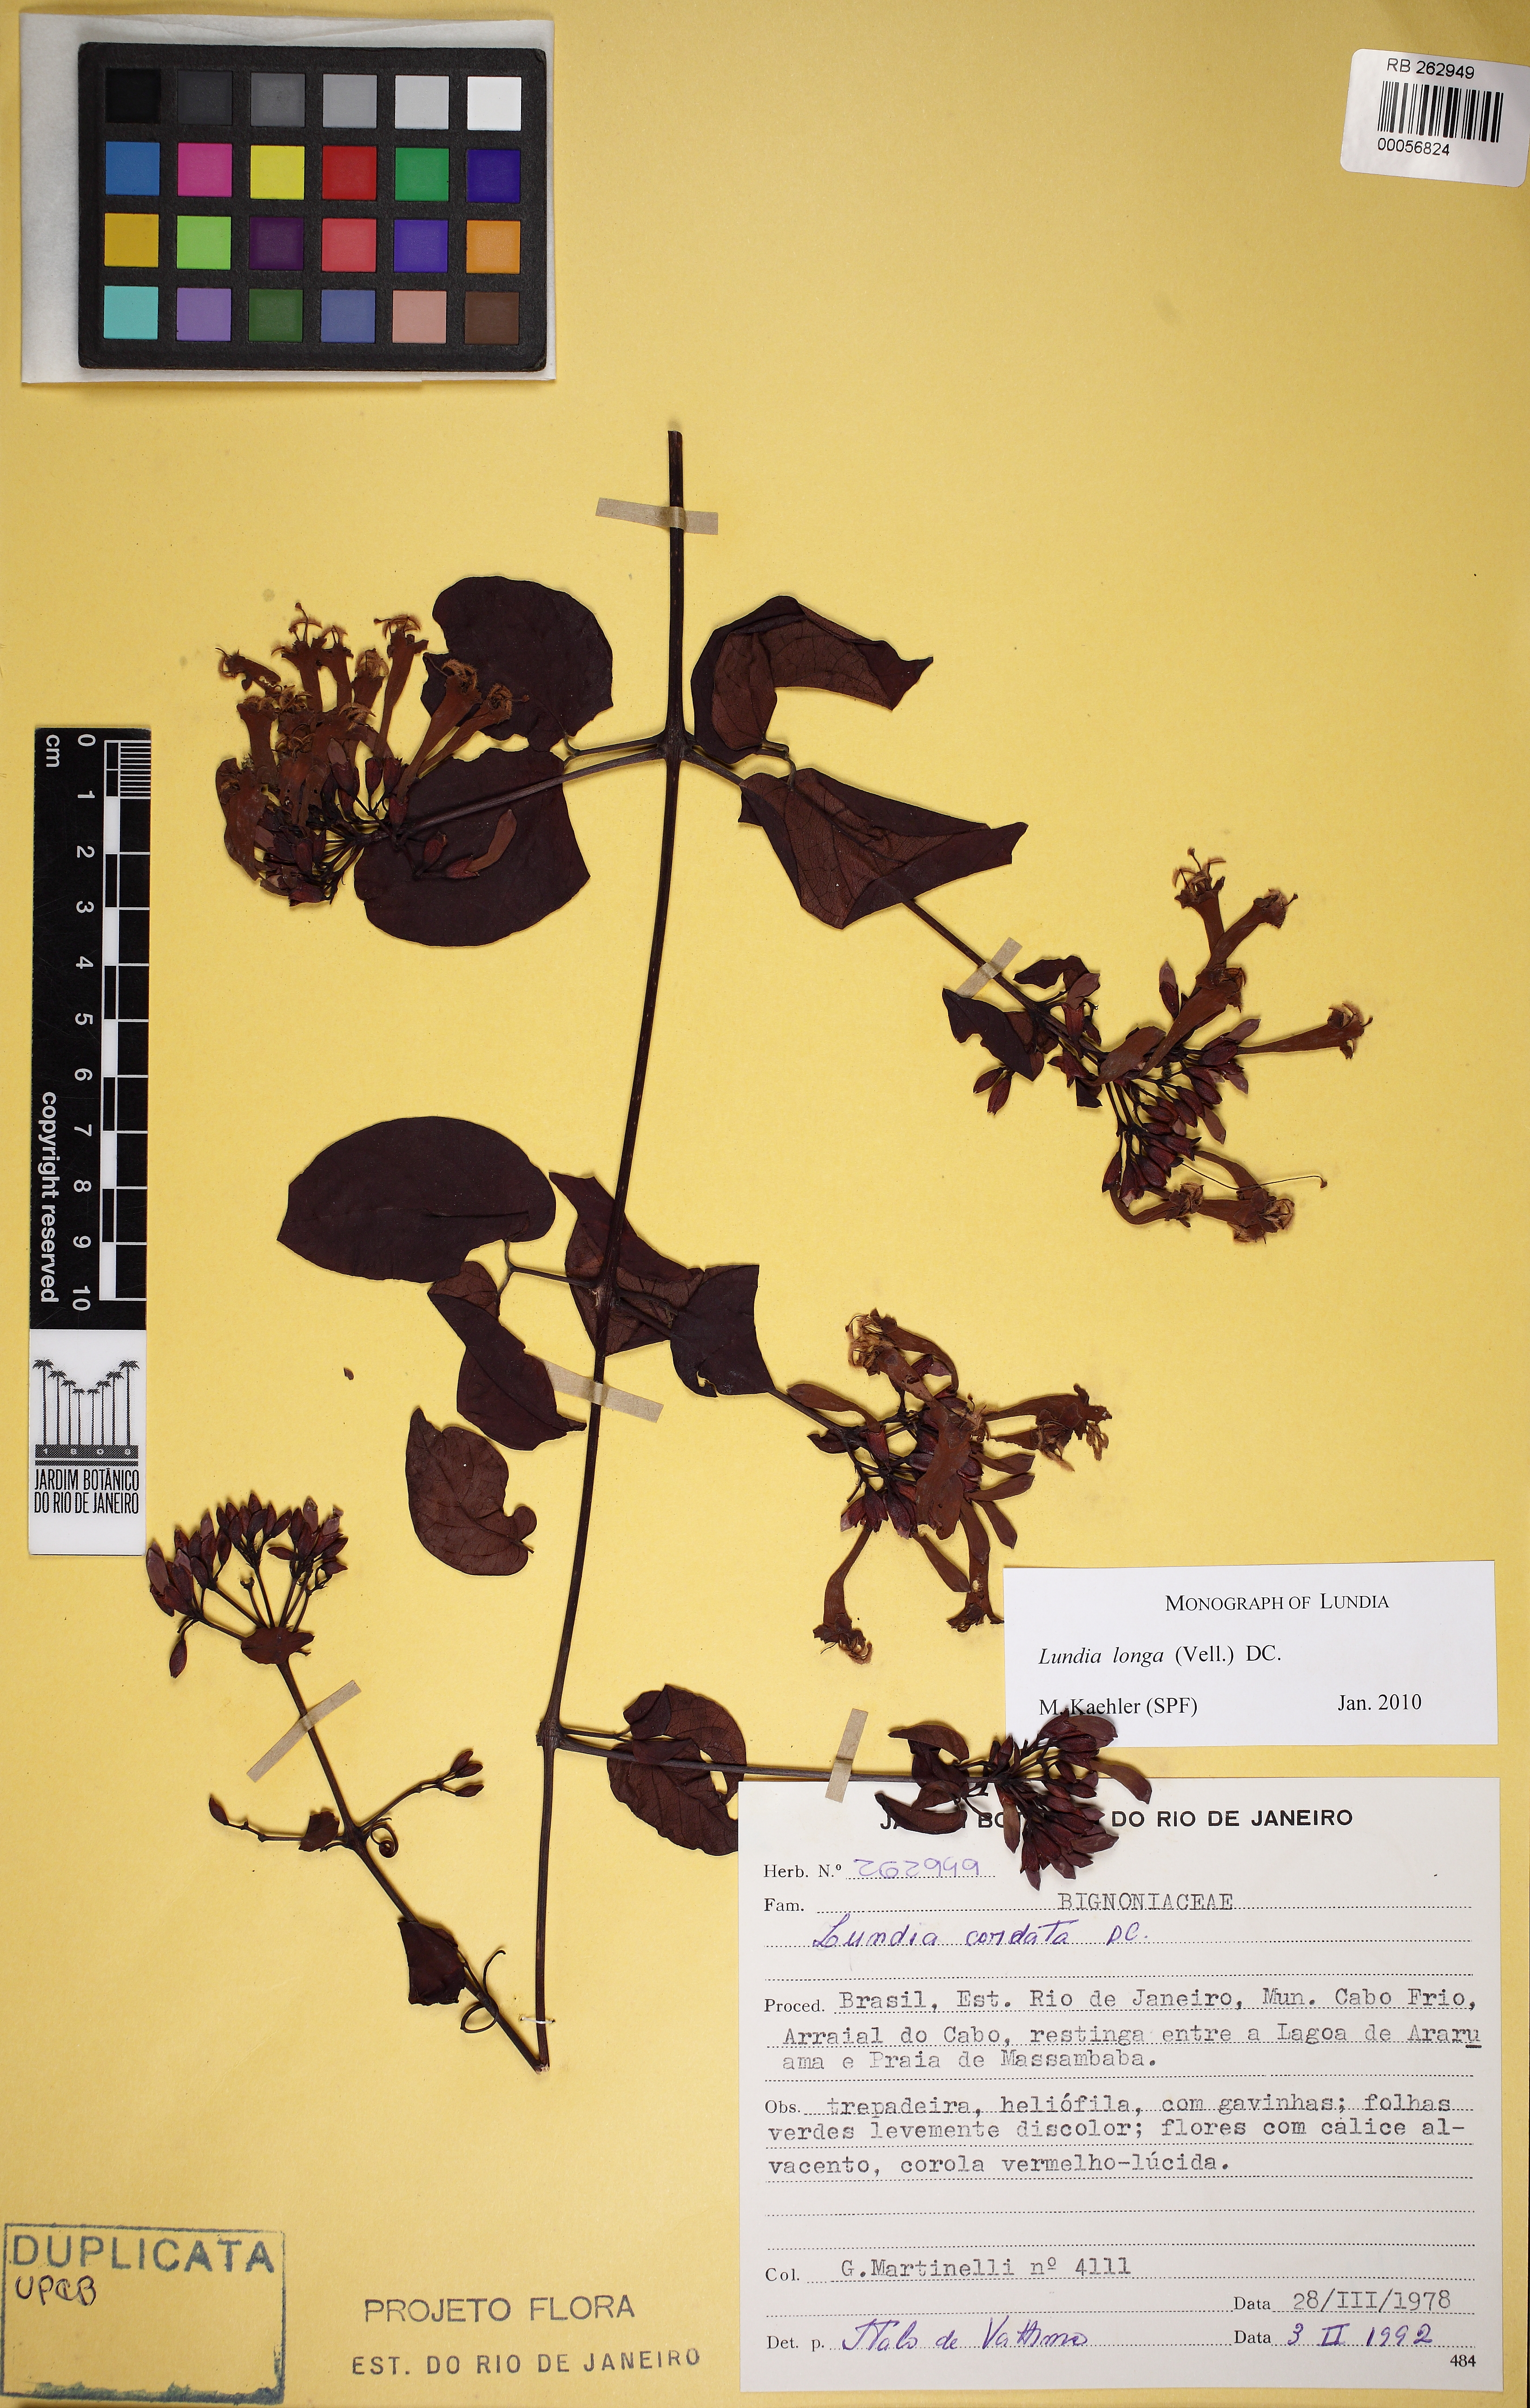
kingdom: Plantae
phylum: Tracheophyta
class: Magnoliopsida
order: Lamiales
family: Bignoniaceae
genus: Lundia
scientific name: Lundia longa
